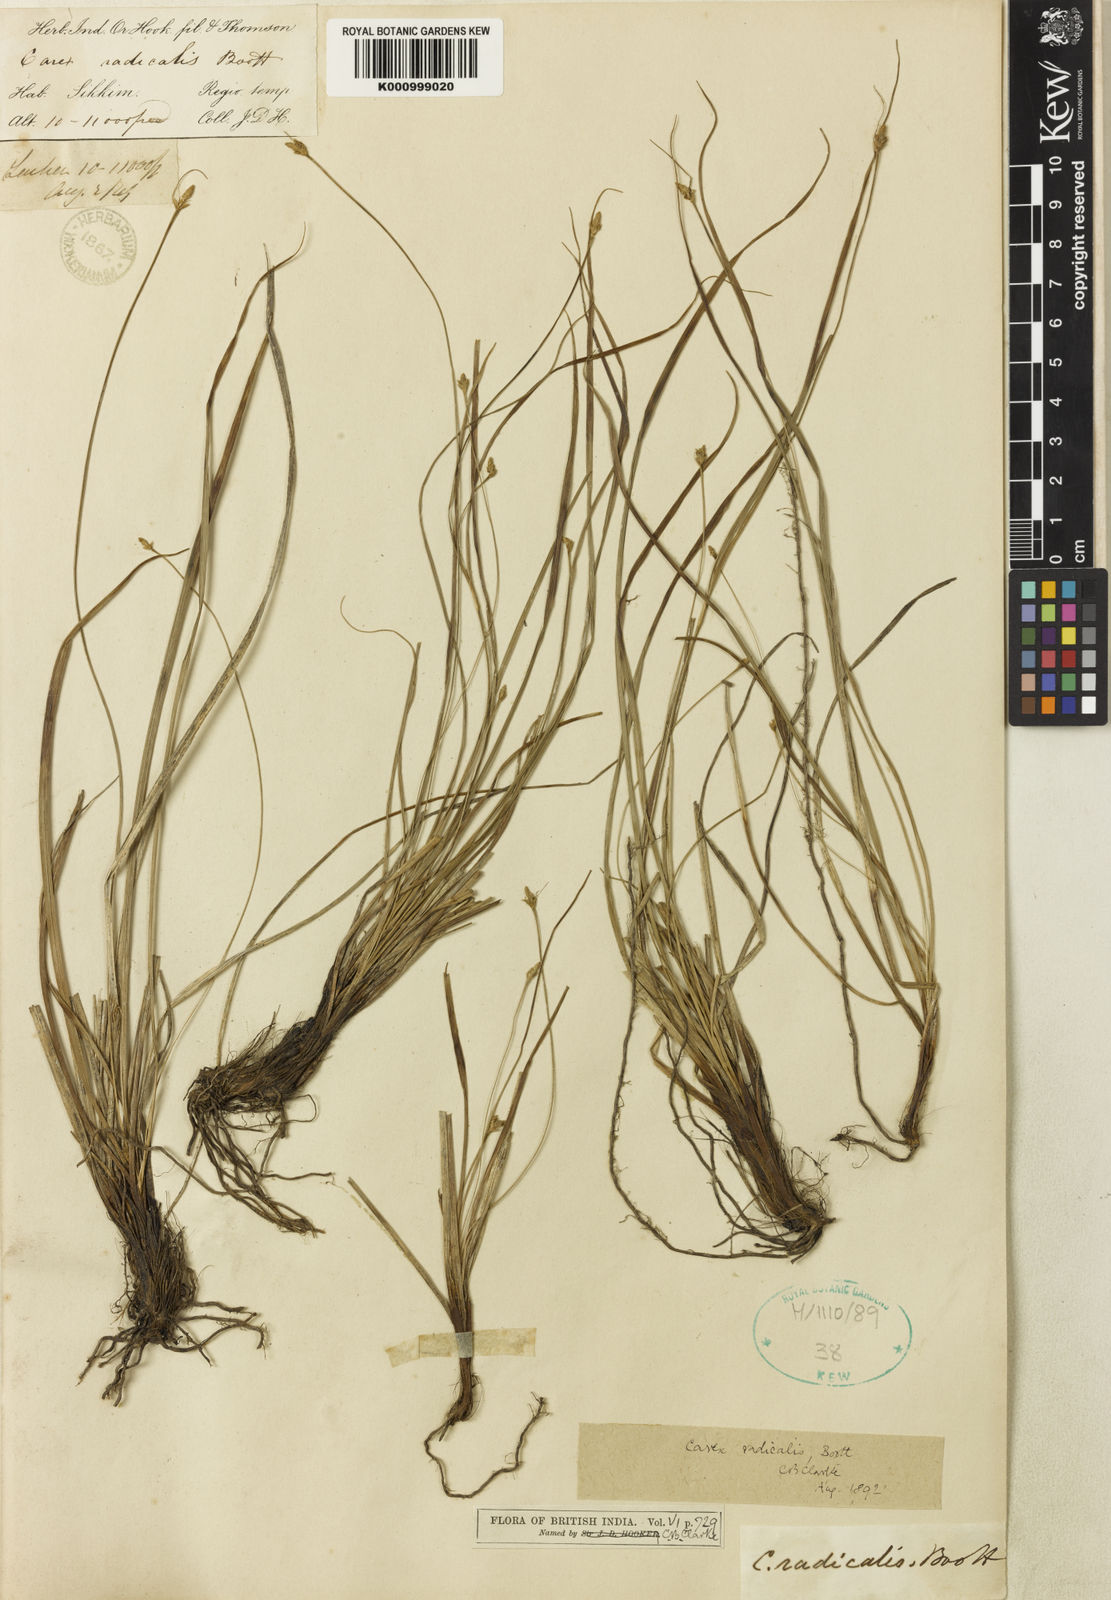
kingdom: Plantae
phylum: Tracheophyta
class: Liliopsida
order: Poales
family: Cyperaceae
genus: Carex
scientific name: Carex radicalis
